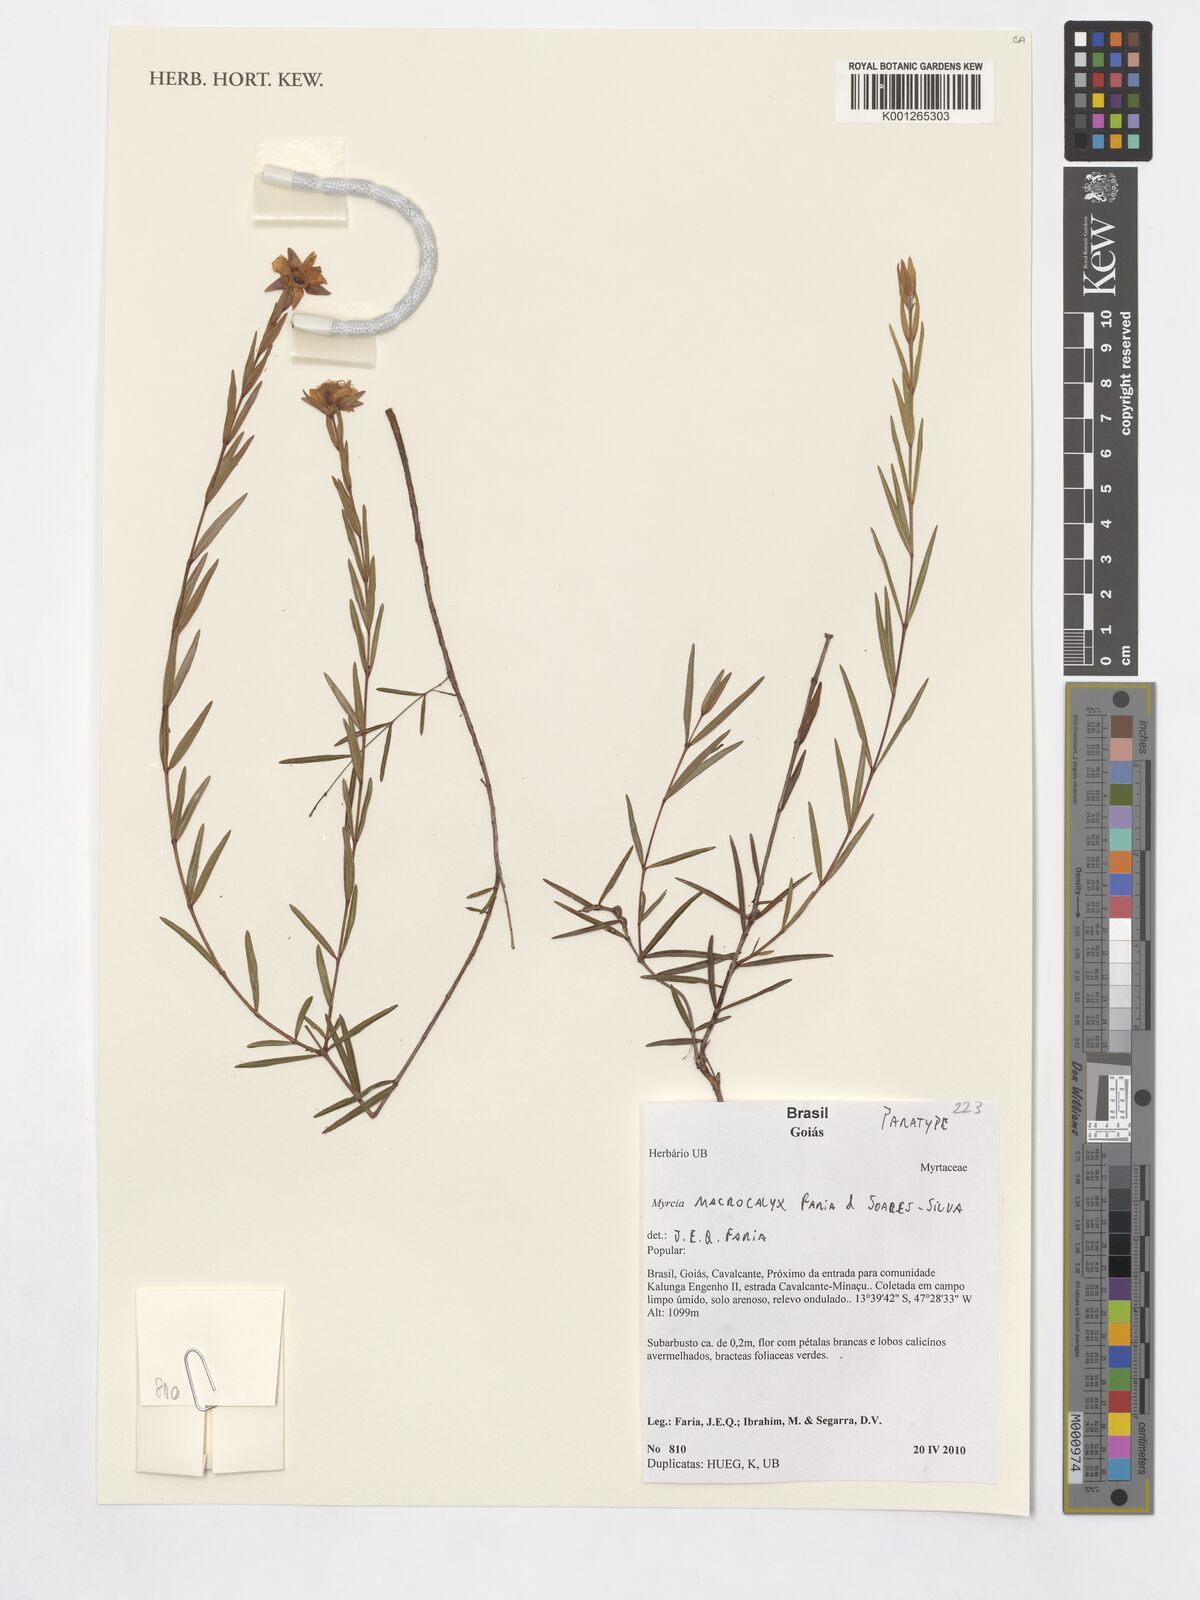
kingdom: Plantae
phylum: Tracheophyta
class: Magnoliopsida
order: Myrtales
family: Myrtaceae
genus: Myrcia
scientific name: Myrcia macrocalyx
